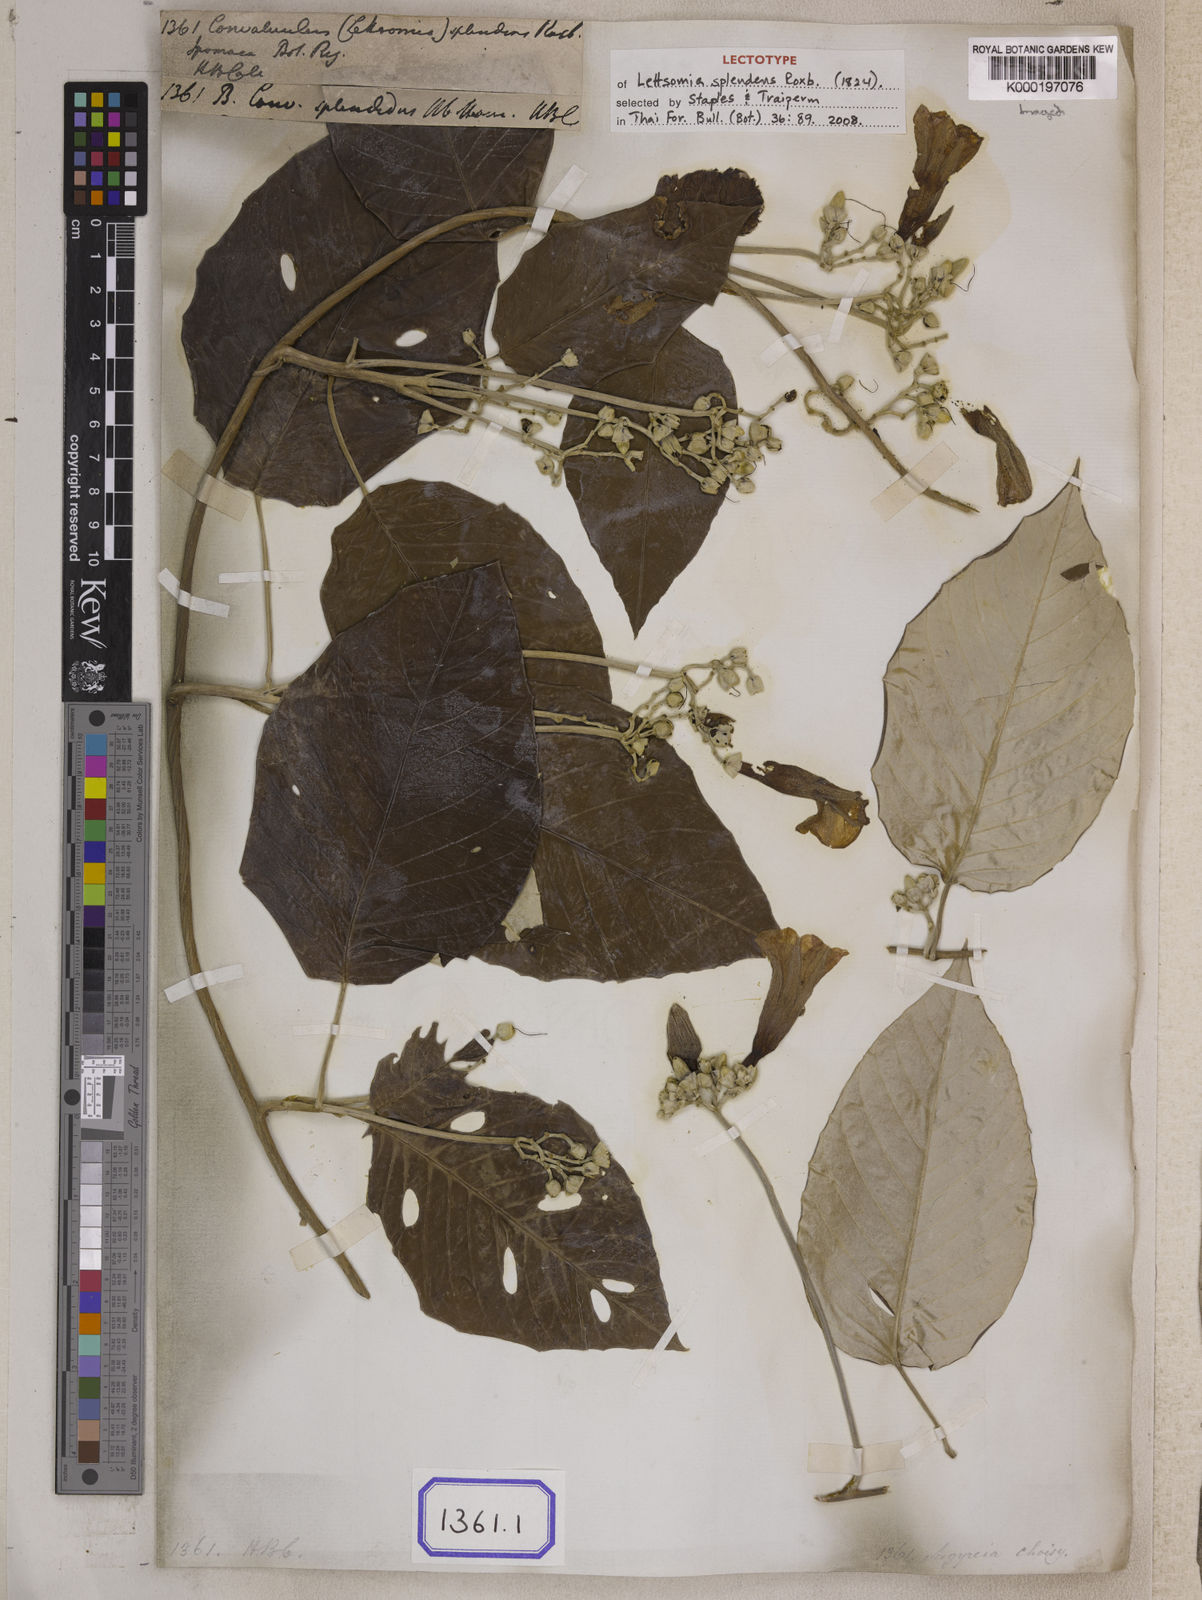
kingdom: Plantae
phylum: Tracheophyta
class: Magnoliopsida
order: Solanales
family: Convolvulaceae
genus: Argyreia
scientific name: Argyreia splendens
